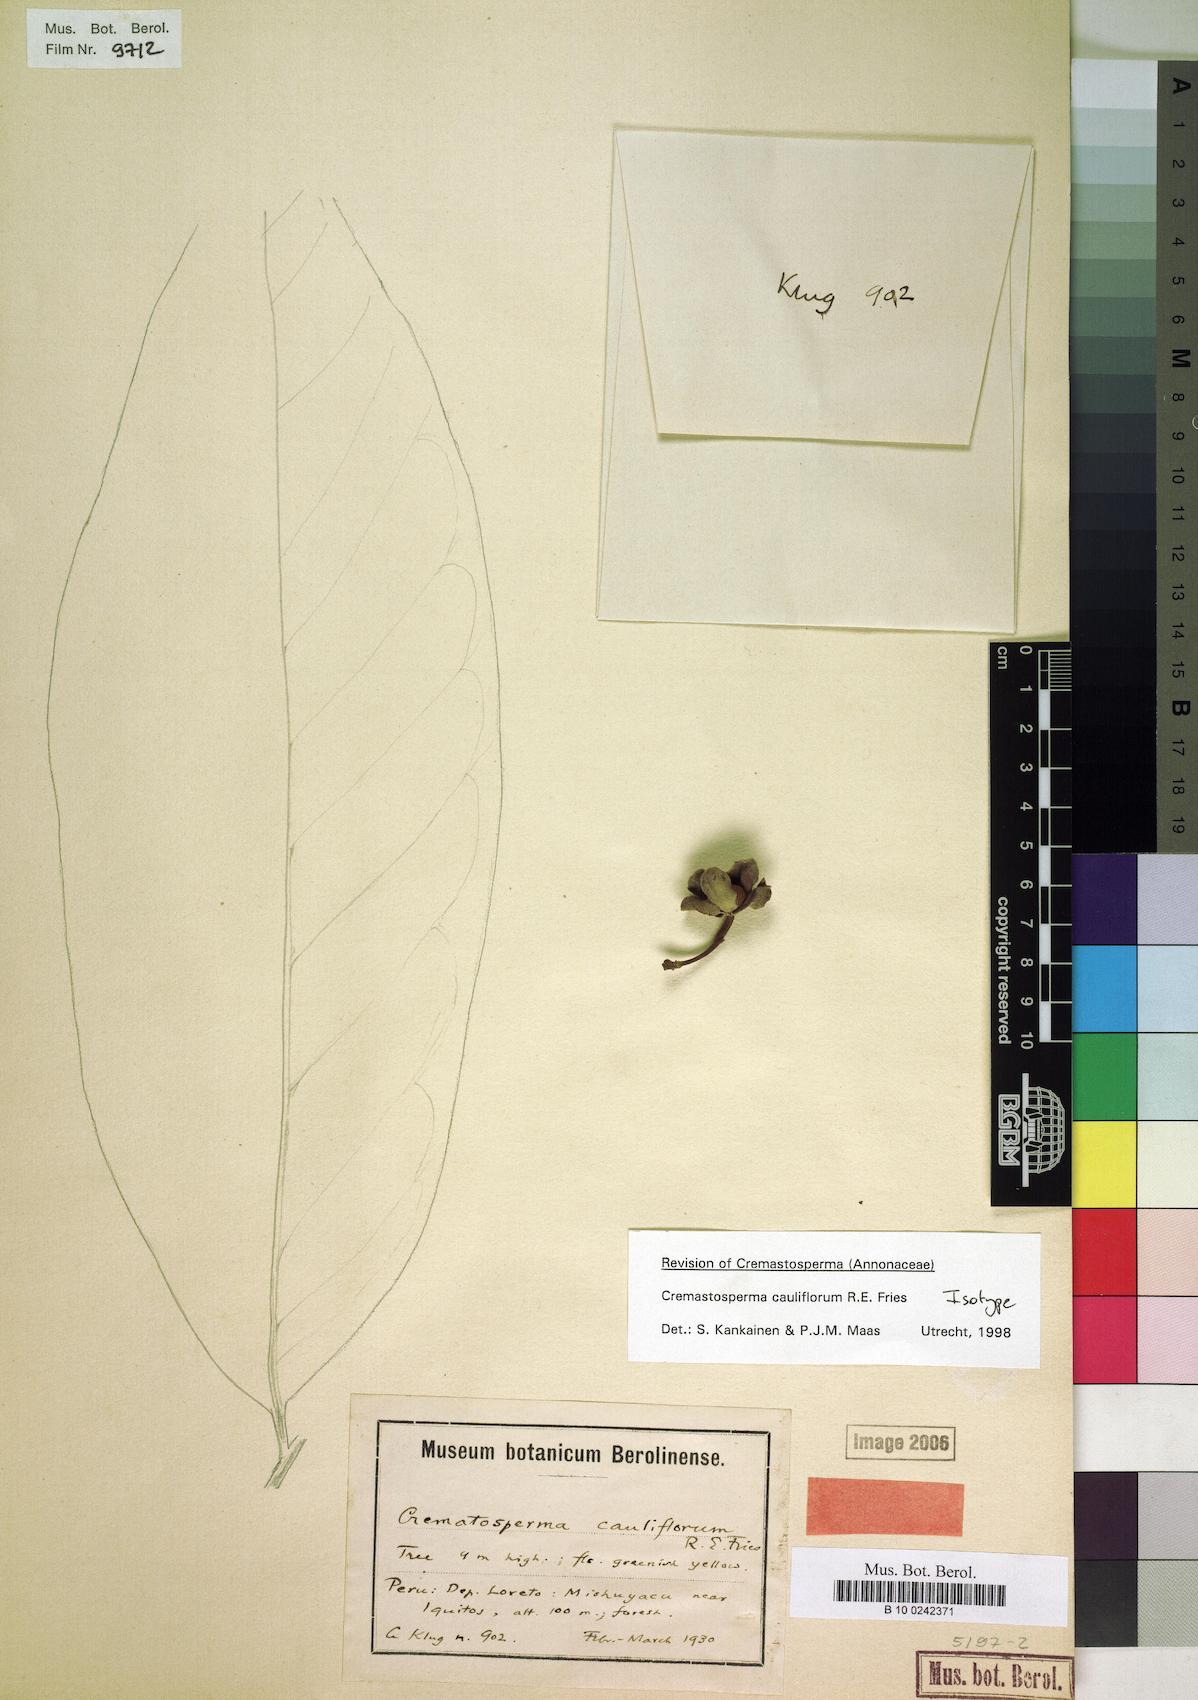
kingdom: Plantae
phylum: Tracheophyta
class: Magnoliopsida
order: Magnoliales
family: Annonaceae
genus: Cremastosperma
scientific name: Cremastosperma cauliflorum
